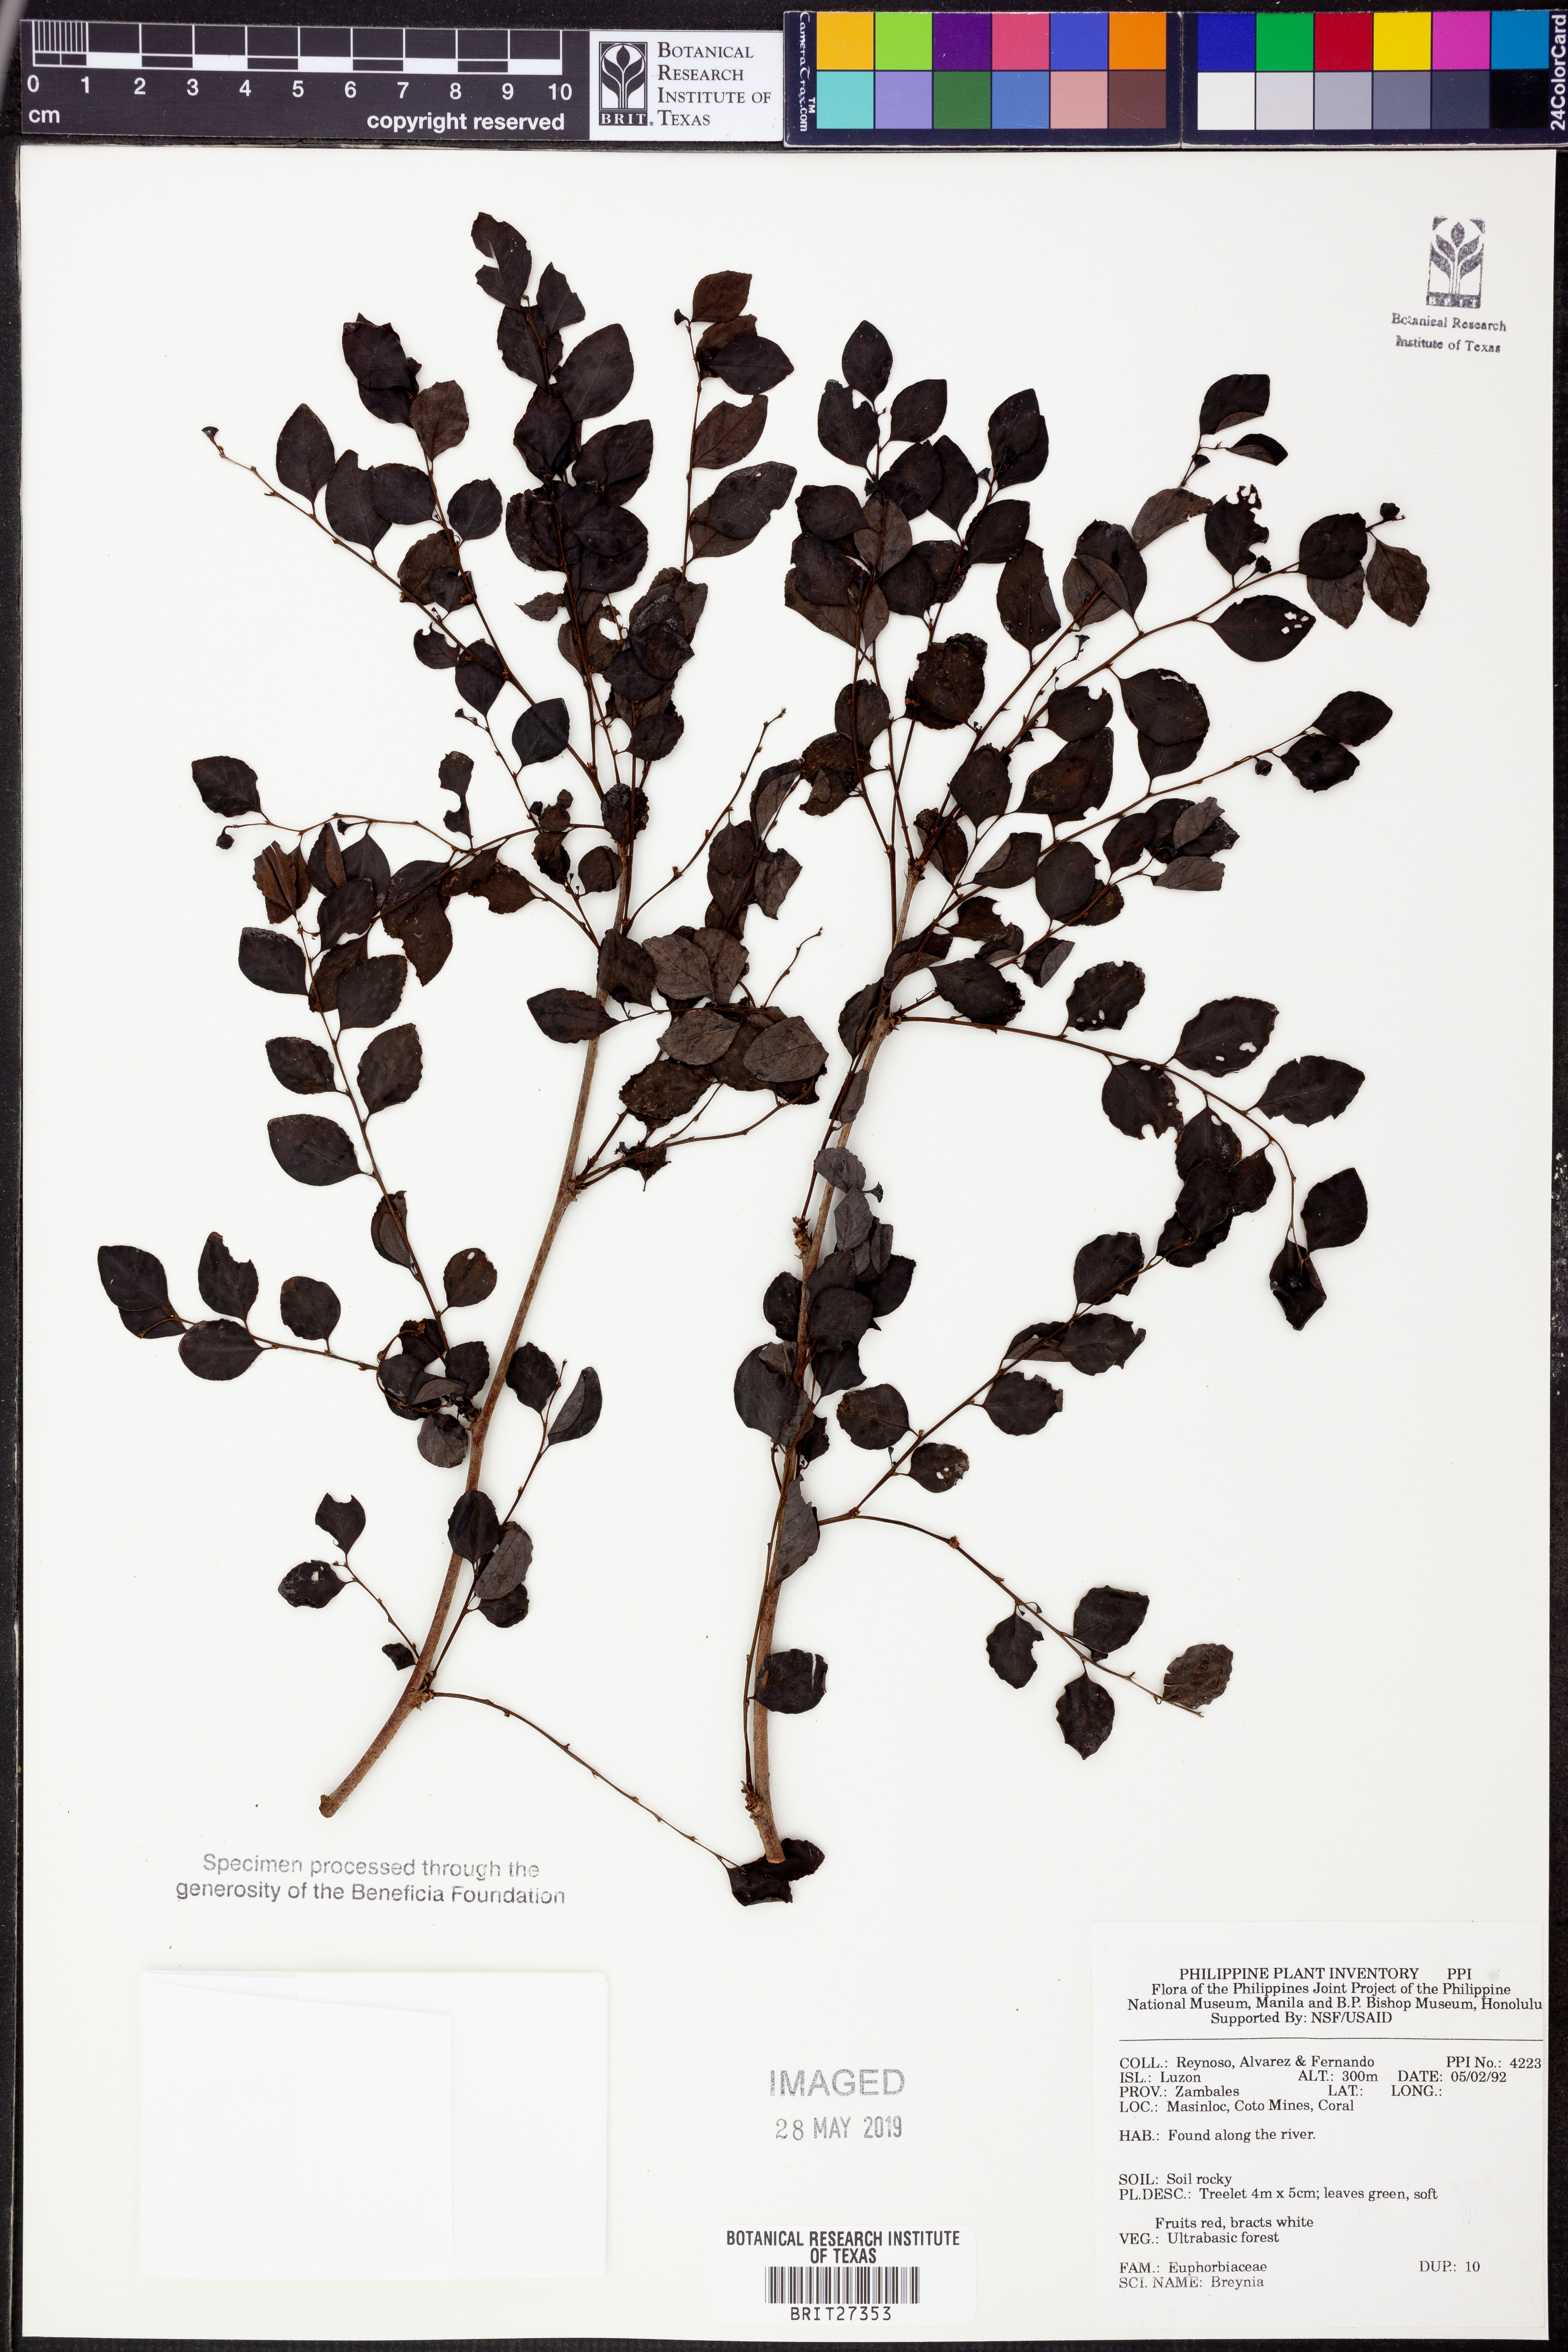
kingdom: Plantae
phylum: Tracheophyta
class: Magnoliopsida
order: Malpighiales
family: Phyllanthaceae
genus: Breynia
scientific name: Breynia
